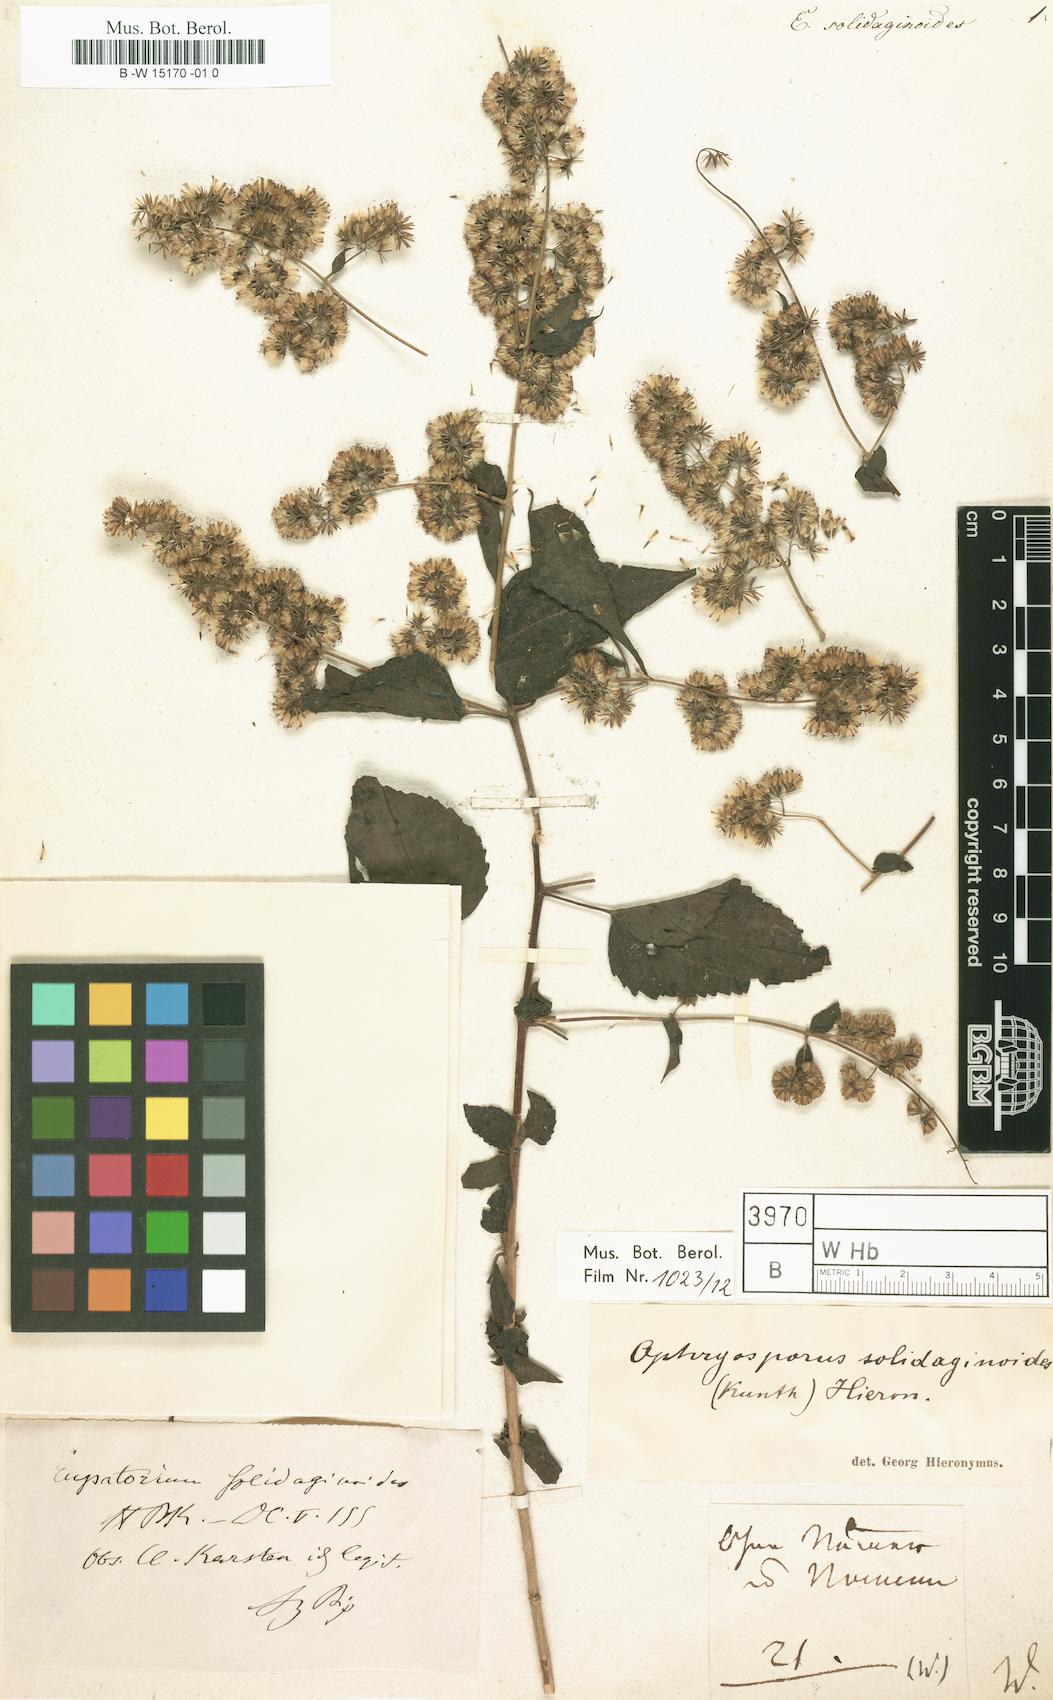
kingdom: Plantae
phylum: Tracheophyta
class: Magnoliopsida
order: Asterales
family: Asteraceae
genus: Koanophyllon
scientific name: Koanophyllon solidaginoides
